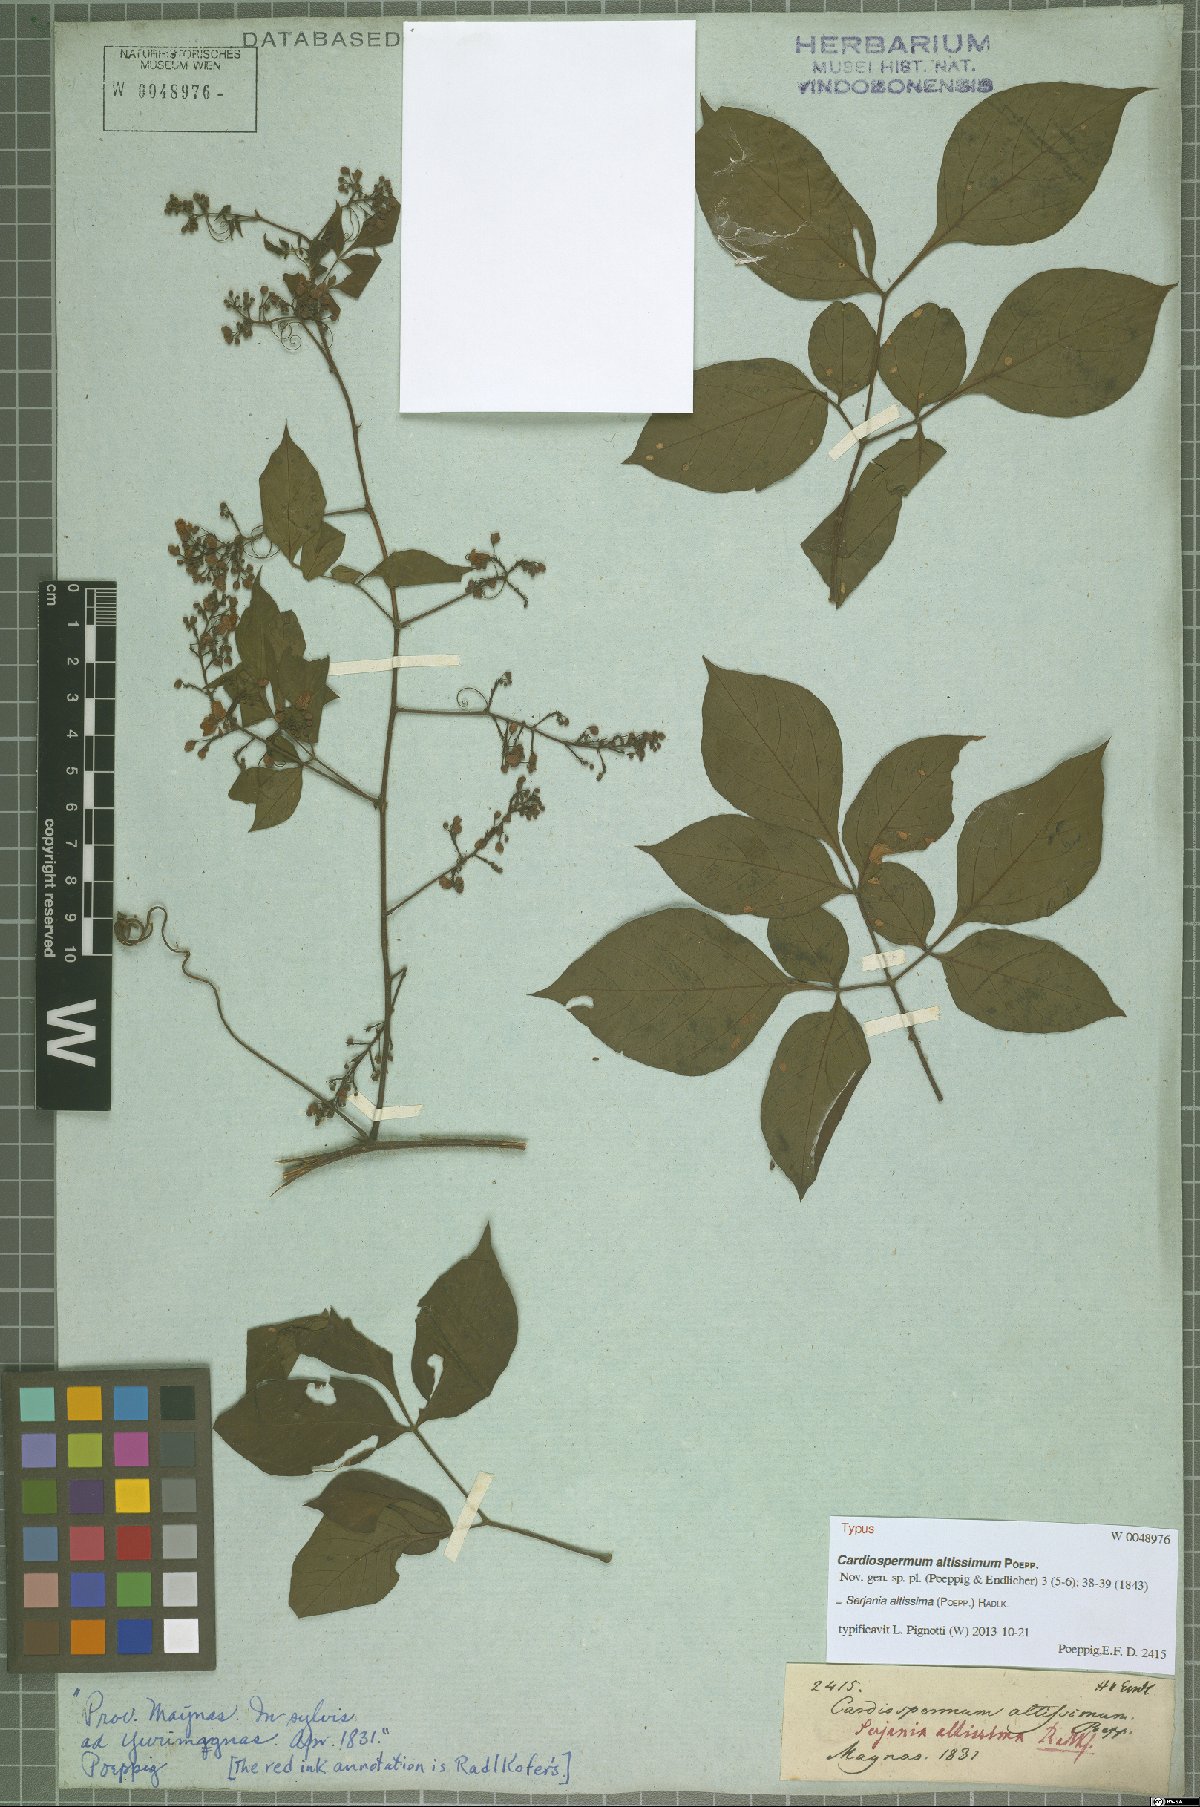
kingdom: Plantae
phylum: Tracheophyta
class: Magnoliopsida
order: Sapindales
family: Sapindaceae
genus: Serjania
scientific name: Serjania altissima
